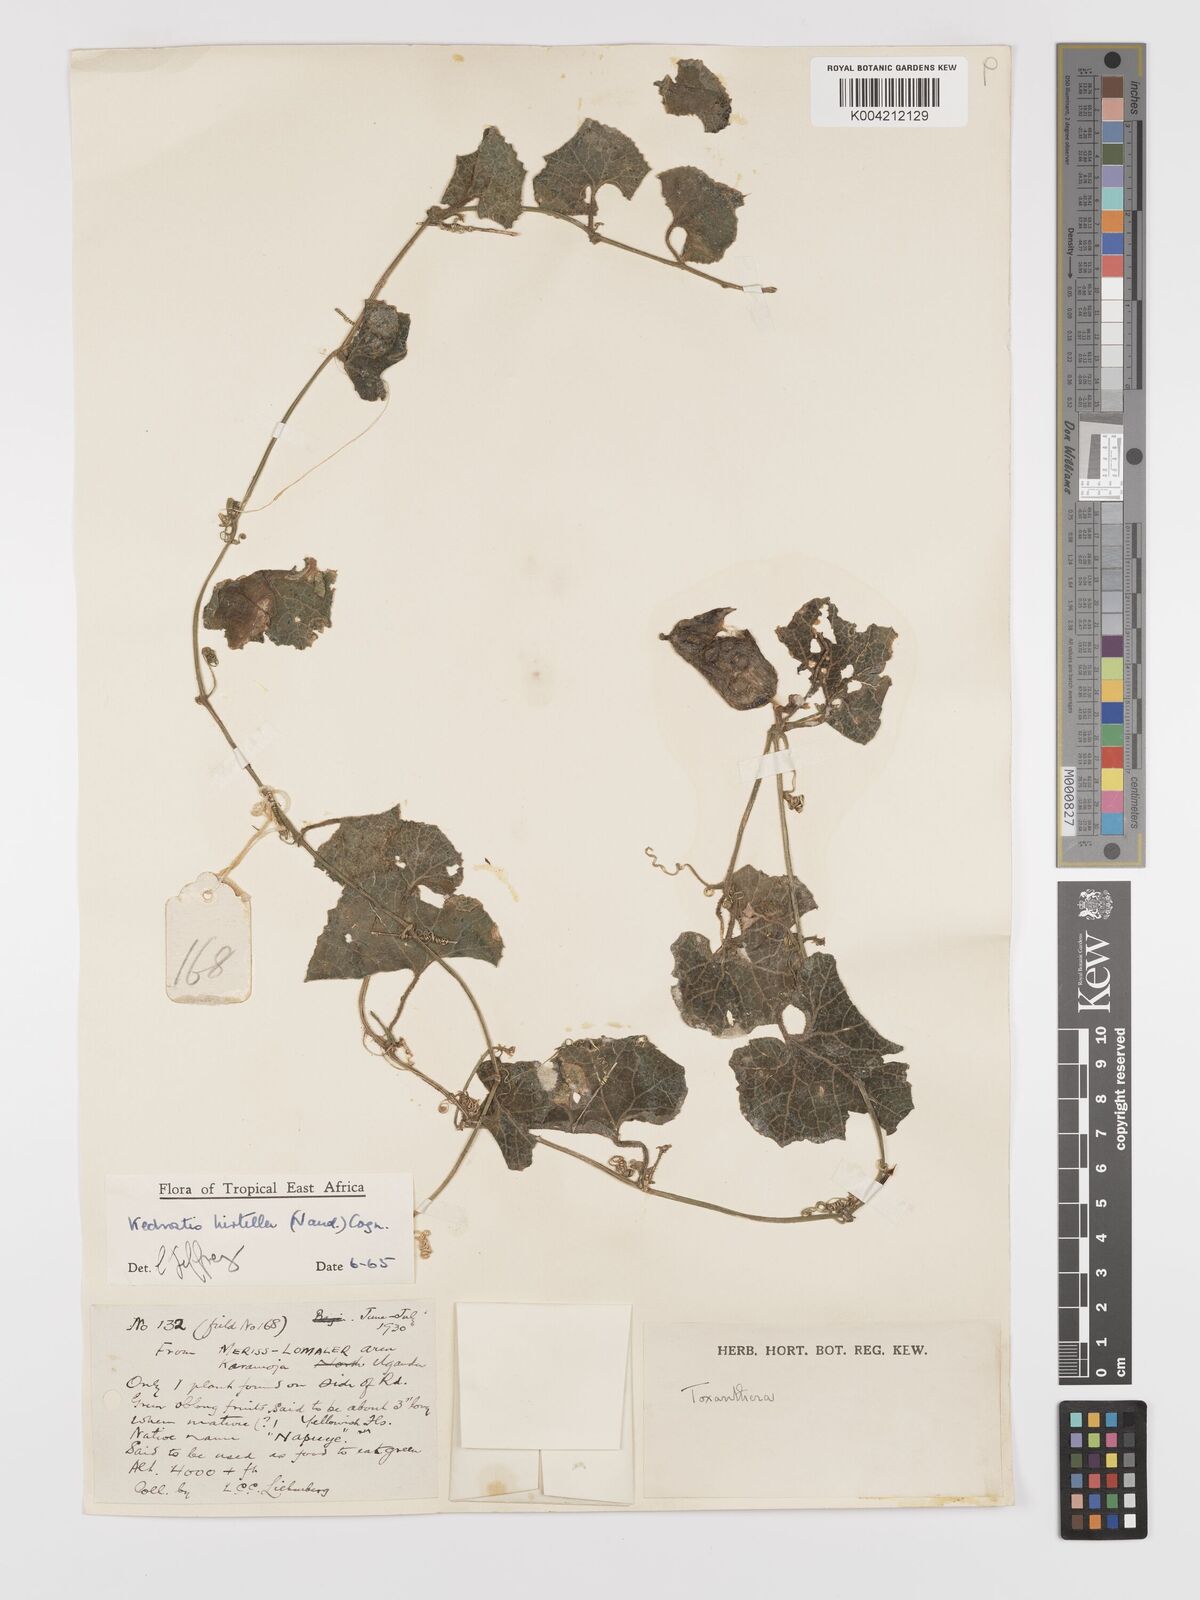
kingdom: Plantae
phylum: Tracheophyta
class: Magnoliopsida
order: Cucurbitales
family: Cucurbitaceae
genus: Kedrostis
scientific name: Kedrostis leloja
